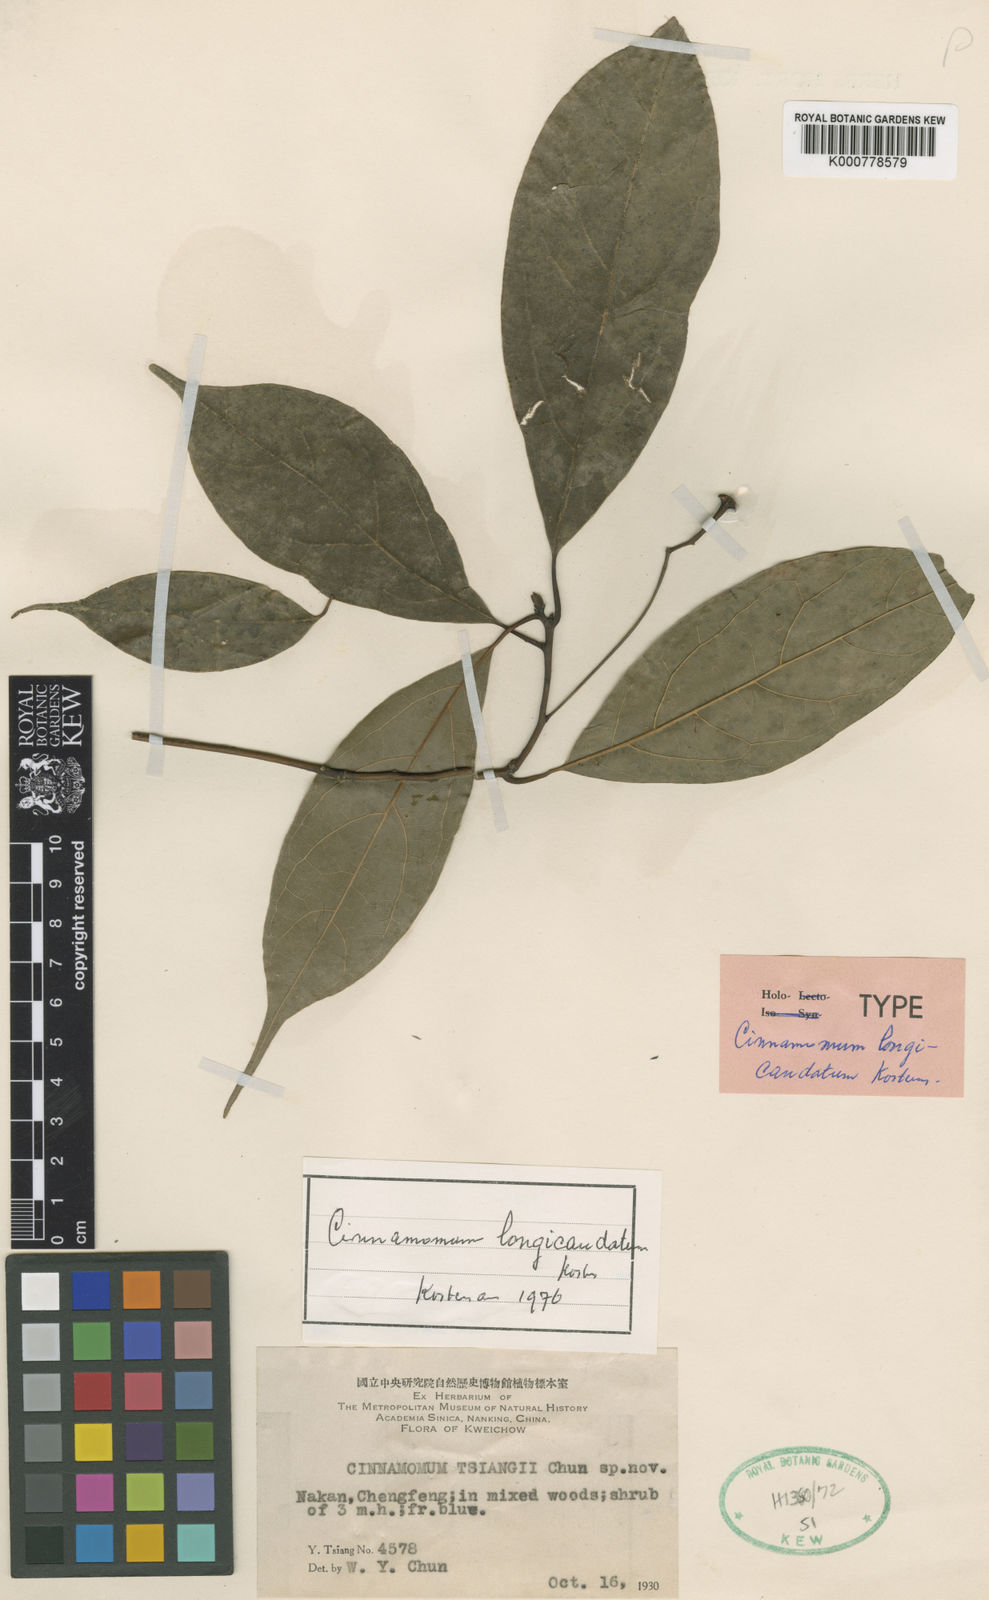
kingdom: Plantae
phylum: Tracheophyta
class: Magnoliopsida
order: Laurales
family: Lauraceae
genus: Cinnamomum
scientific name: Cinnamomum
